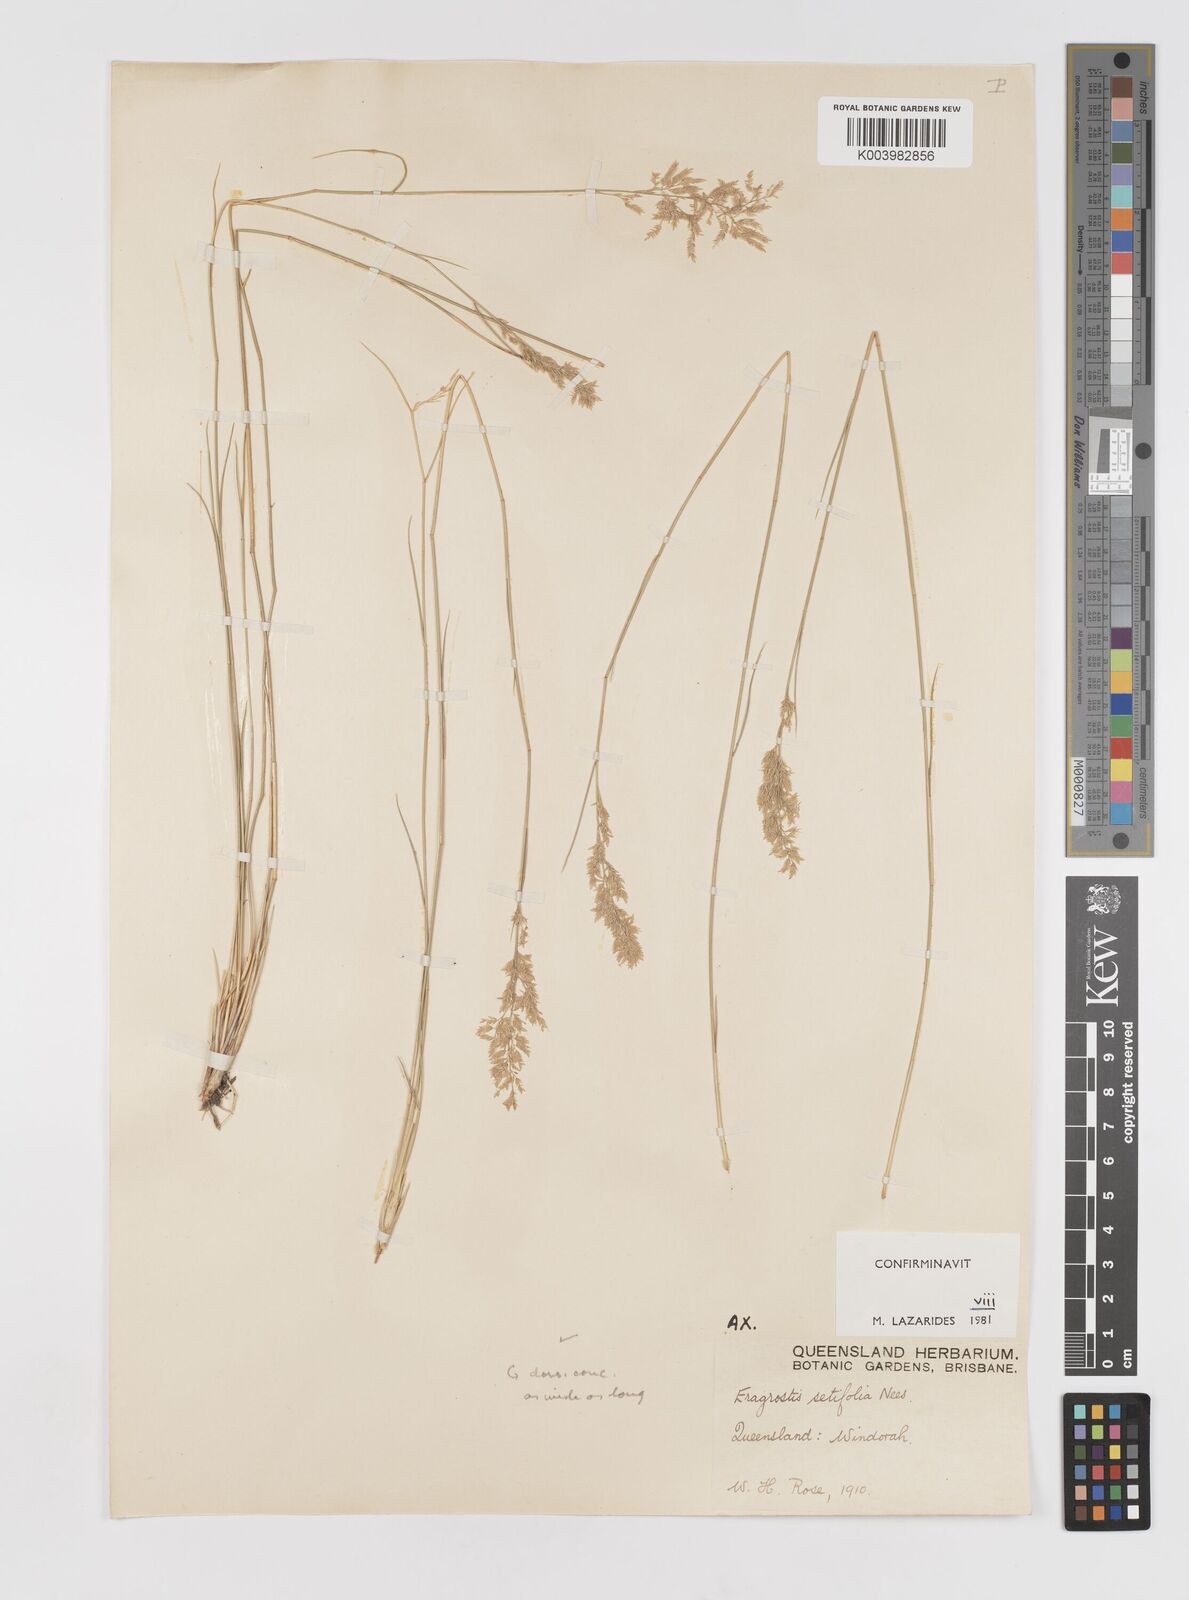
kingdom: Plantae
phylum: Tracheophyta
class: Liliopsida
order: Poales
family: Poaceae
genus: Eragrostis
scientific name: Eragrostis setifolia
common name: Bristleleaf lovegrass
